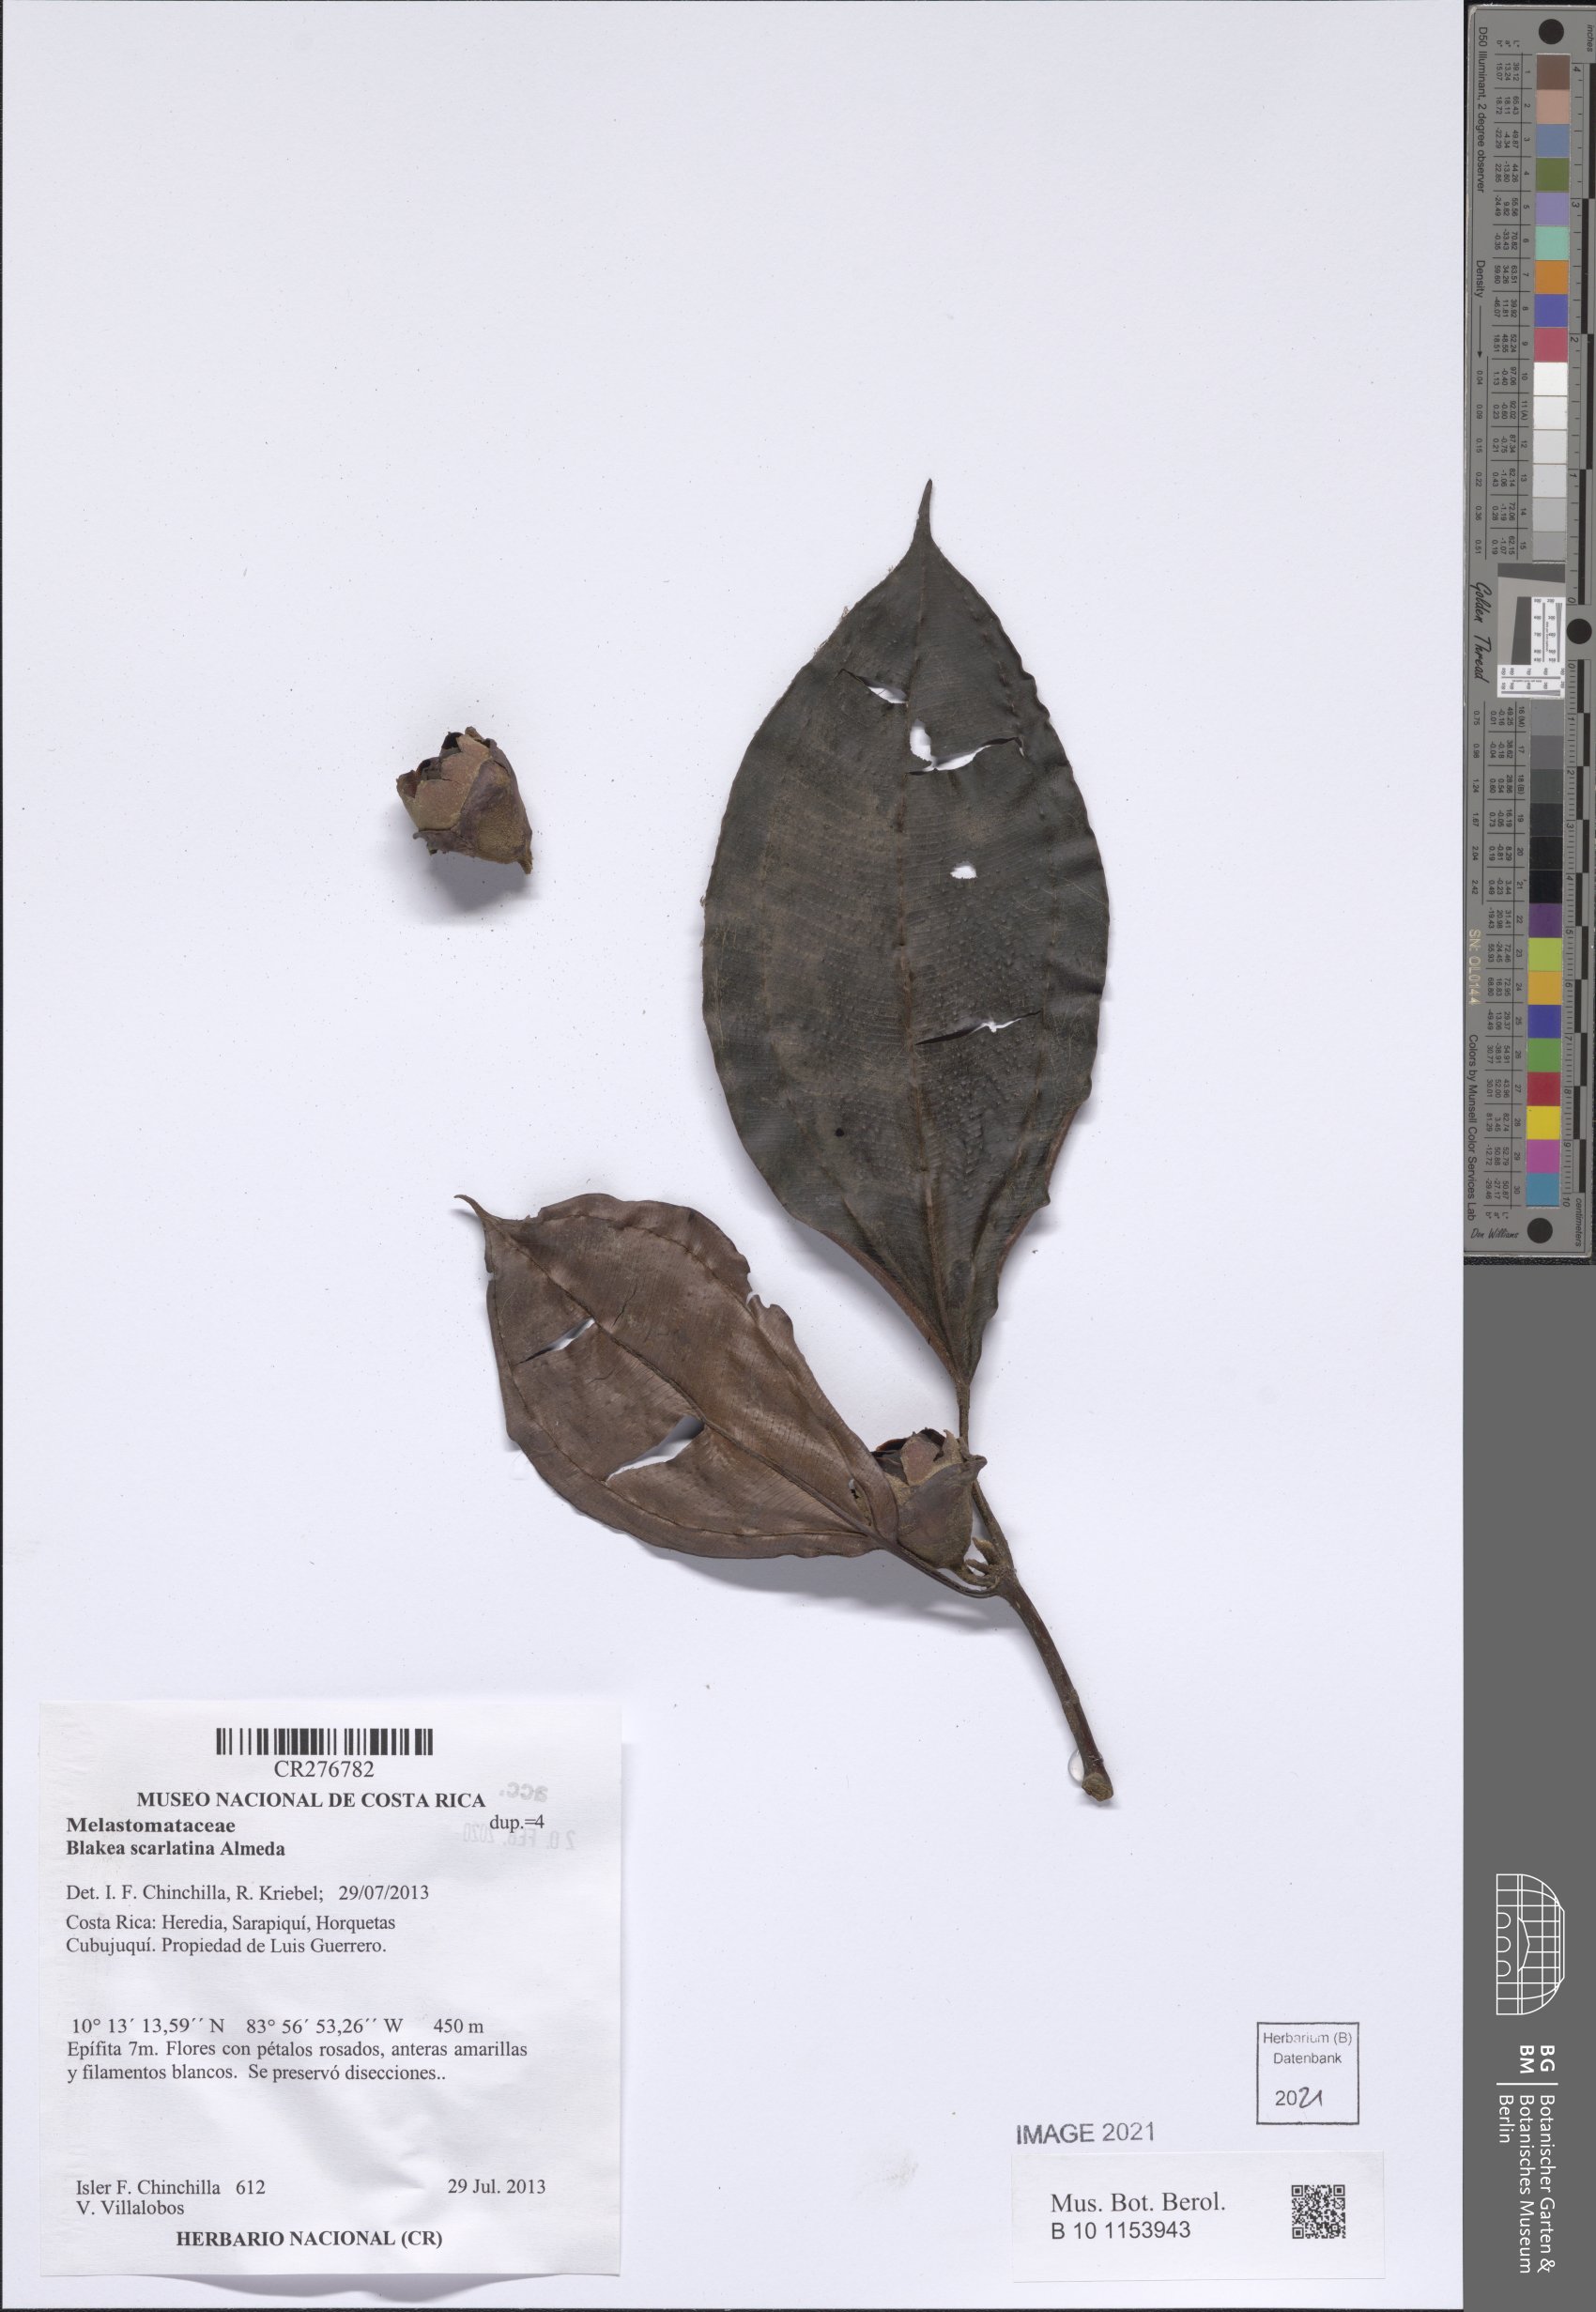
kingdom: Plantae
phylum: Tracheophyta
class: Magnoliopsida
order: Myrtales
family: Melastomataceae
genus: Blakea
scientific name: Blakea
